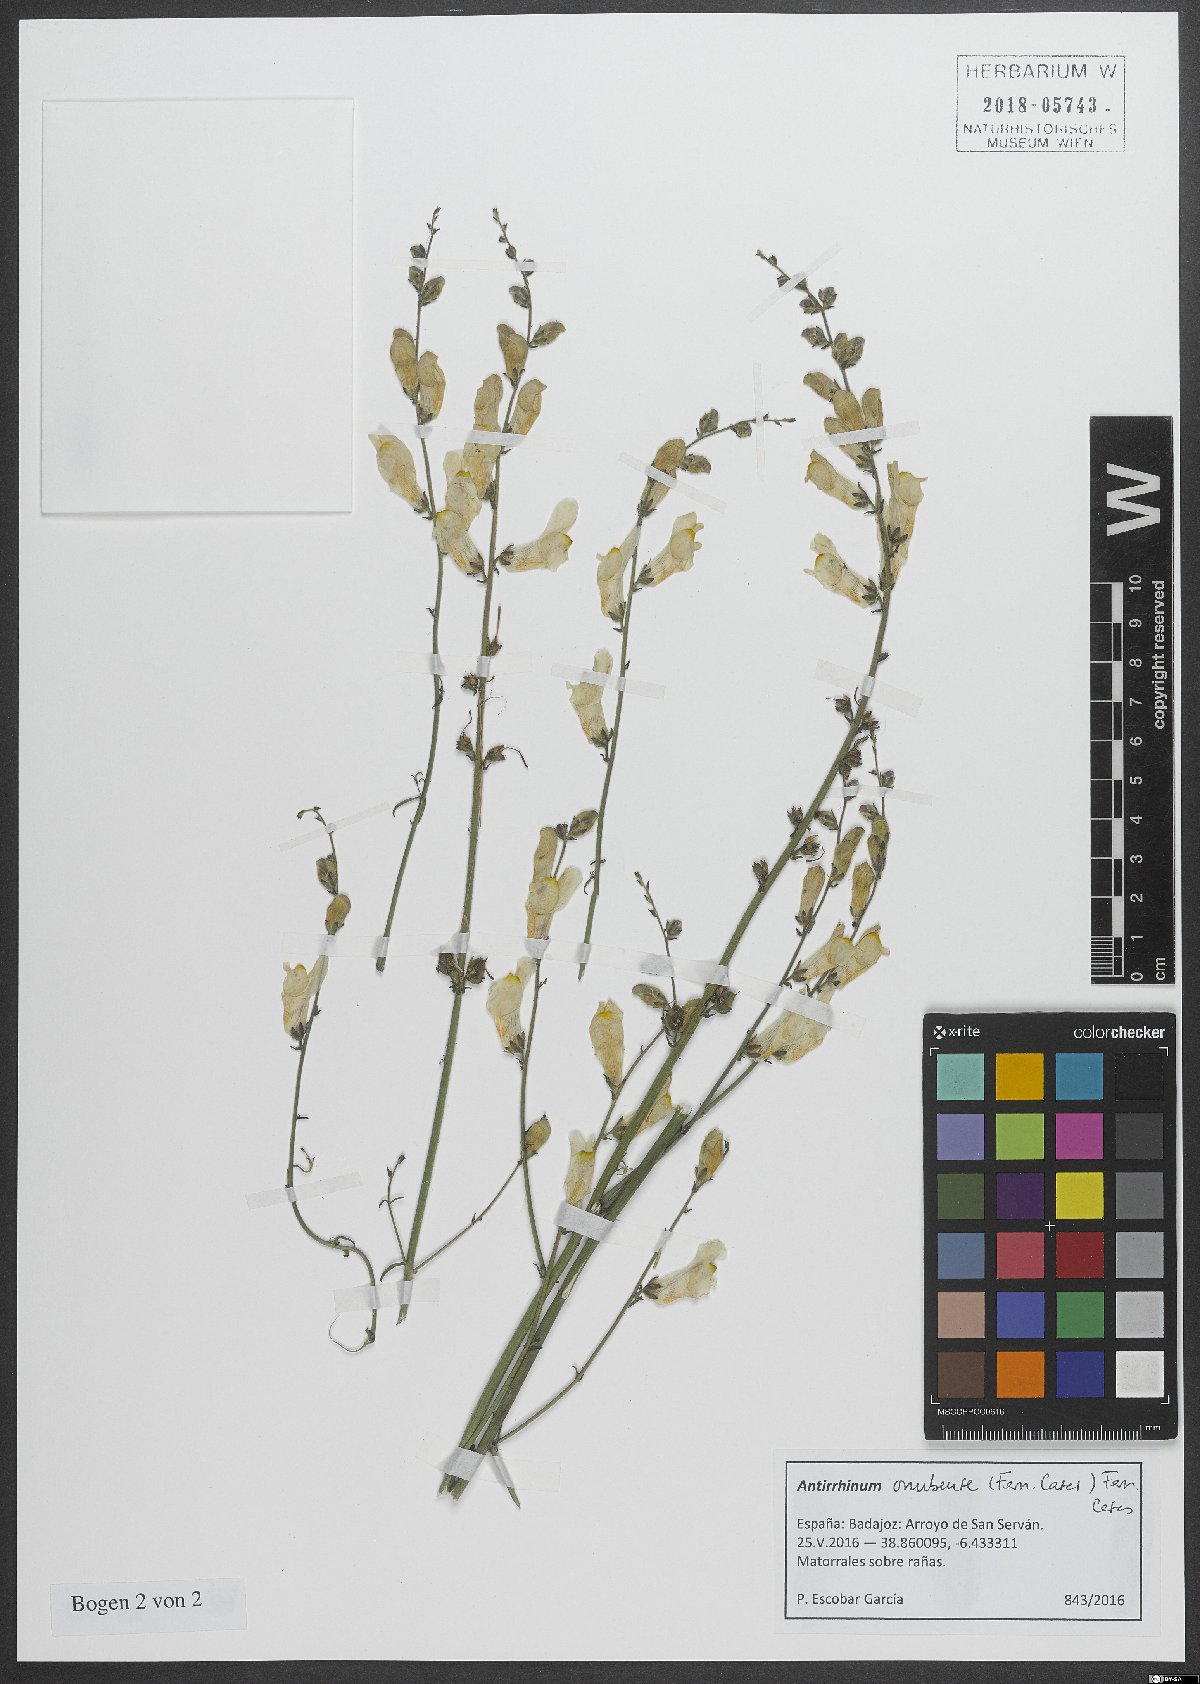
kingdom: Plantae
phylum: Tracheophyta
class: Magnoliopsida
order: Lamiales
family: Plantaginaceae
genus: Antirrhinum
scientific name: Antirrhinum onubense
